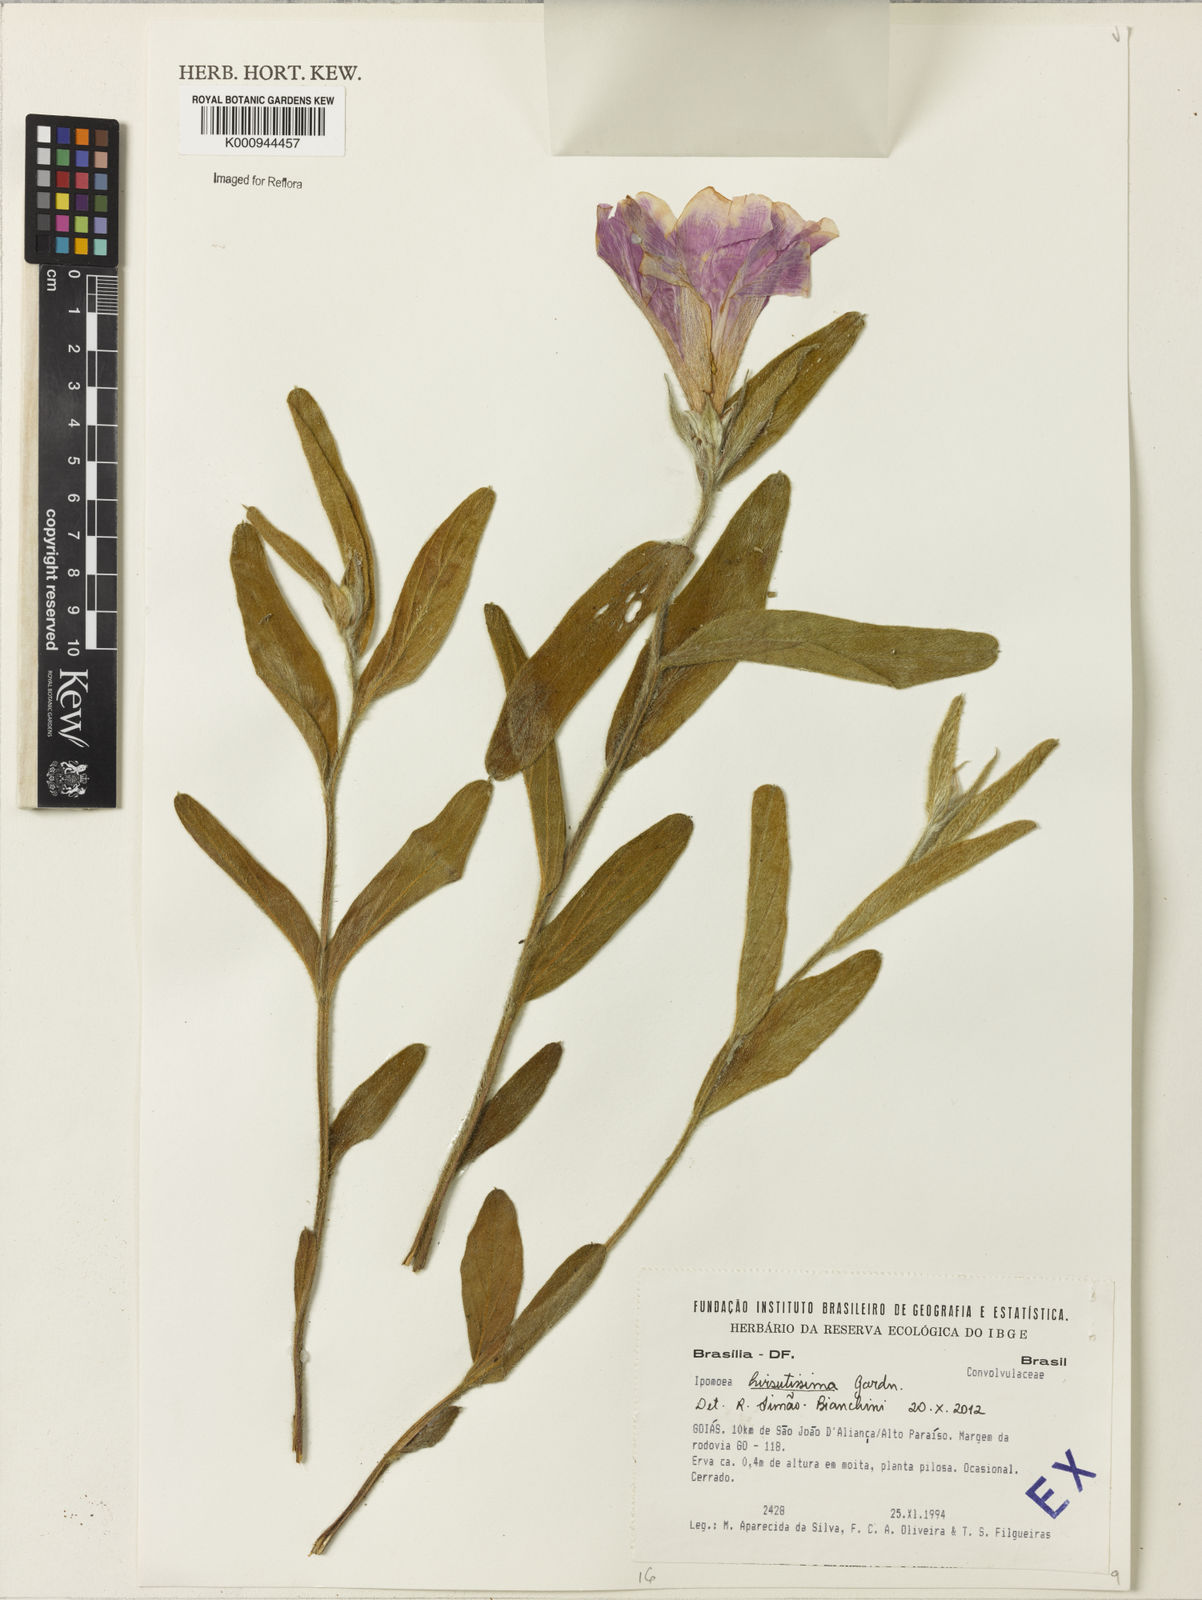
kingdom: Plantae
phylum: Tracheophyta
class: Magnoliopsida
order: Solanales
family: Convolvulaceae
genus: Ipomoea
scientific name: Ipomoea hirsutissima
